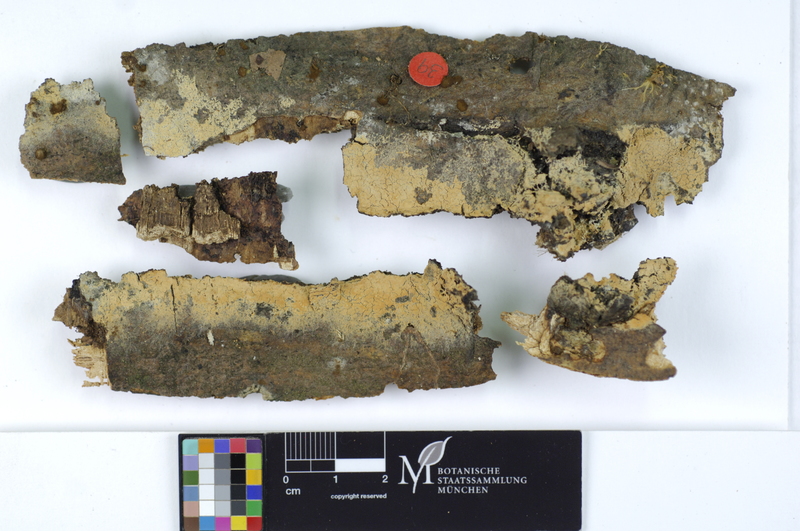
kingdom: Fungi
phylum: Basidiomycota
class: Agaricomycetes
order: Agaricales
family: Stephanosporaceae
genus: Cristinia
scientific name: Cristinia helvetica
